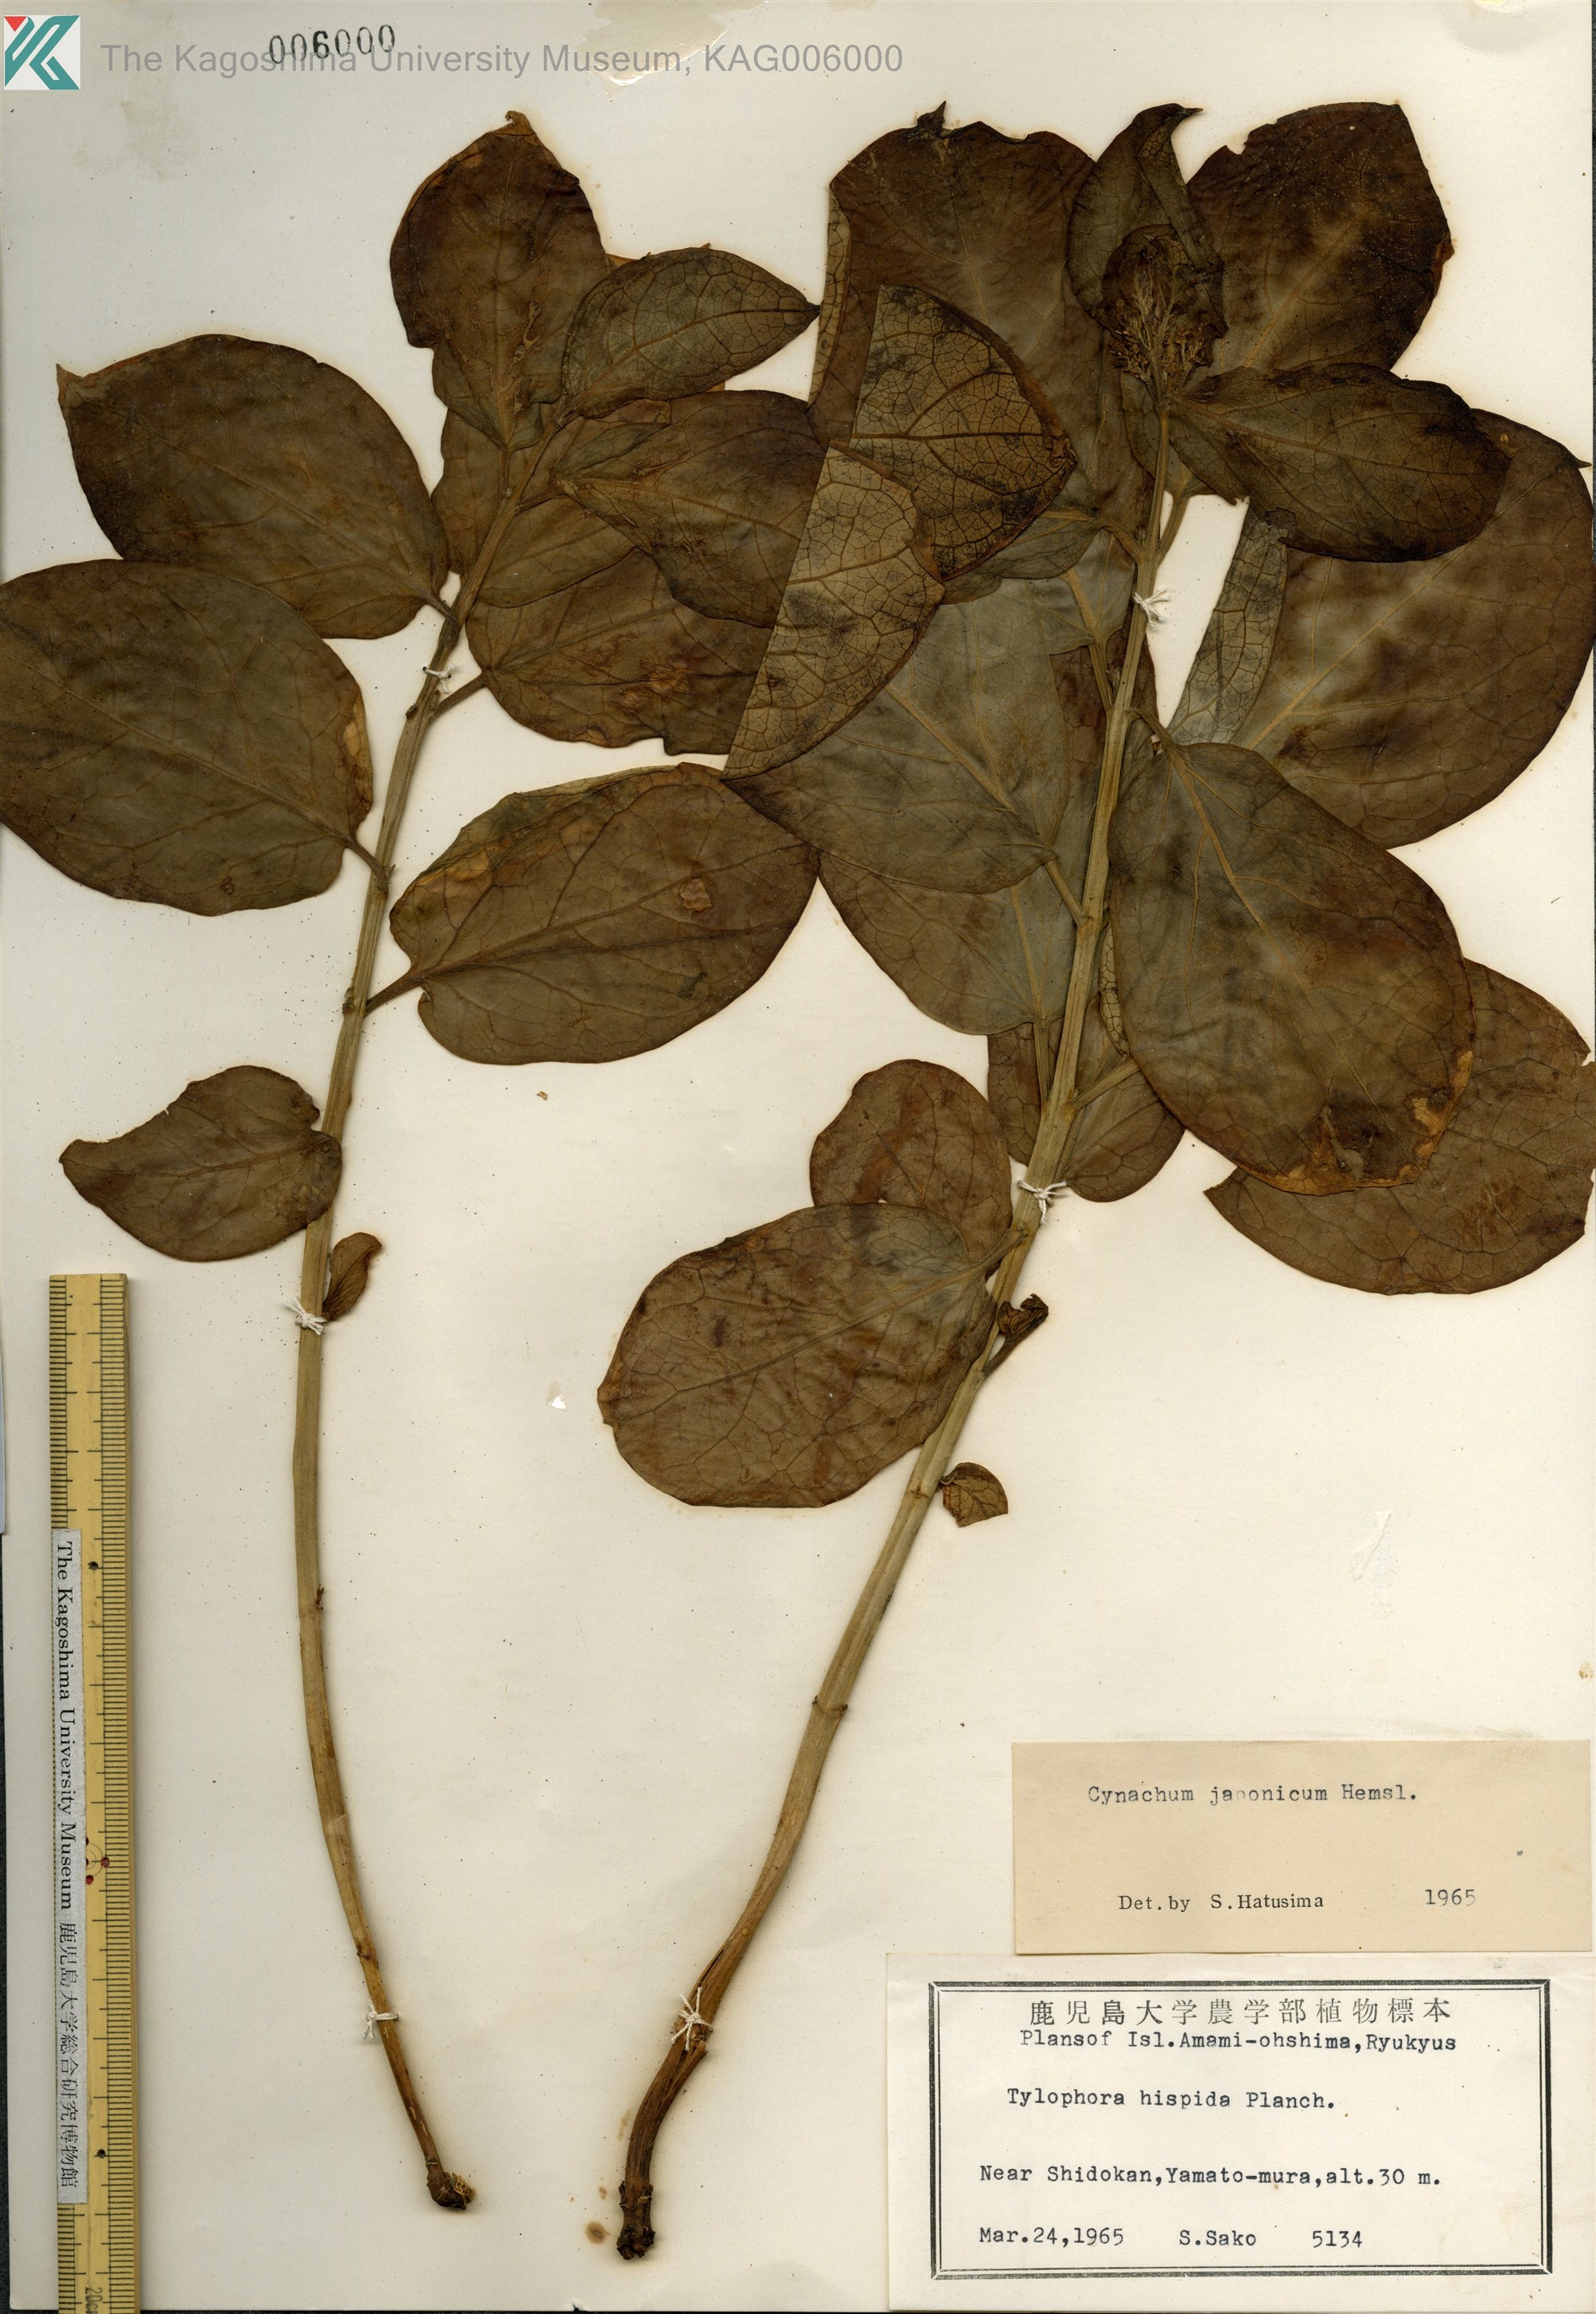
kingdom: Plantae
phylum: Tracheophyta
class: Magnoliopsida
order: Gentianales
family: Apocynaceae
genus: Vincetoxicum
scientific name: Vincetoxicum japonicum
